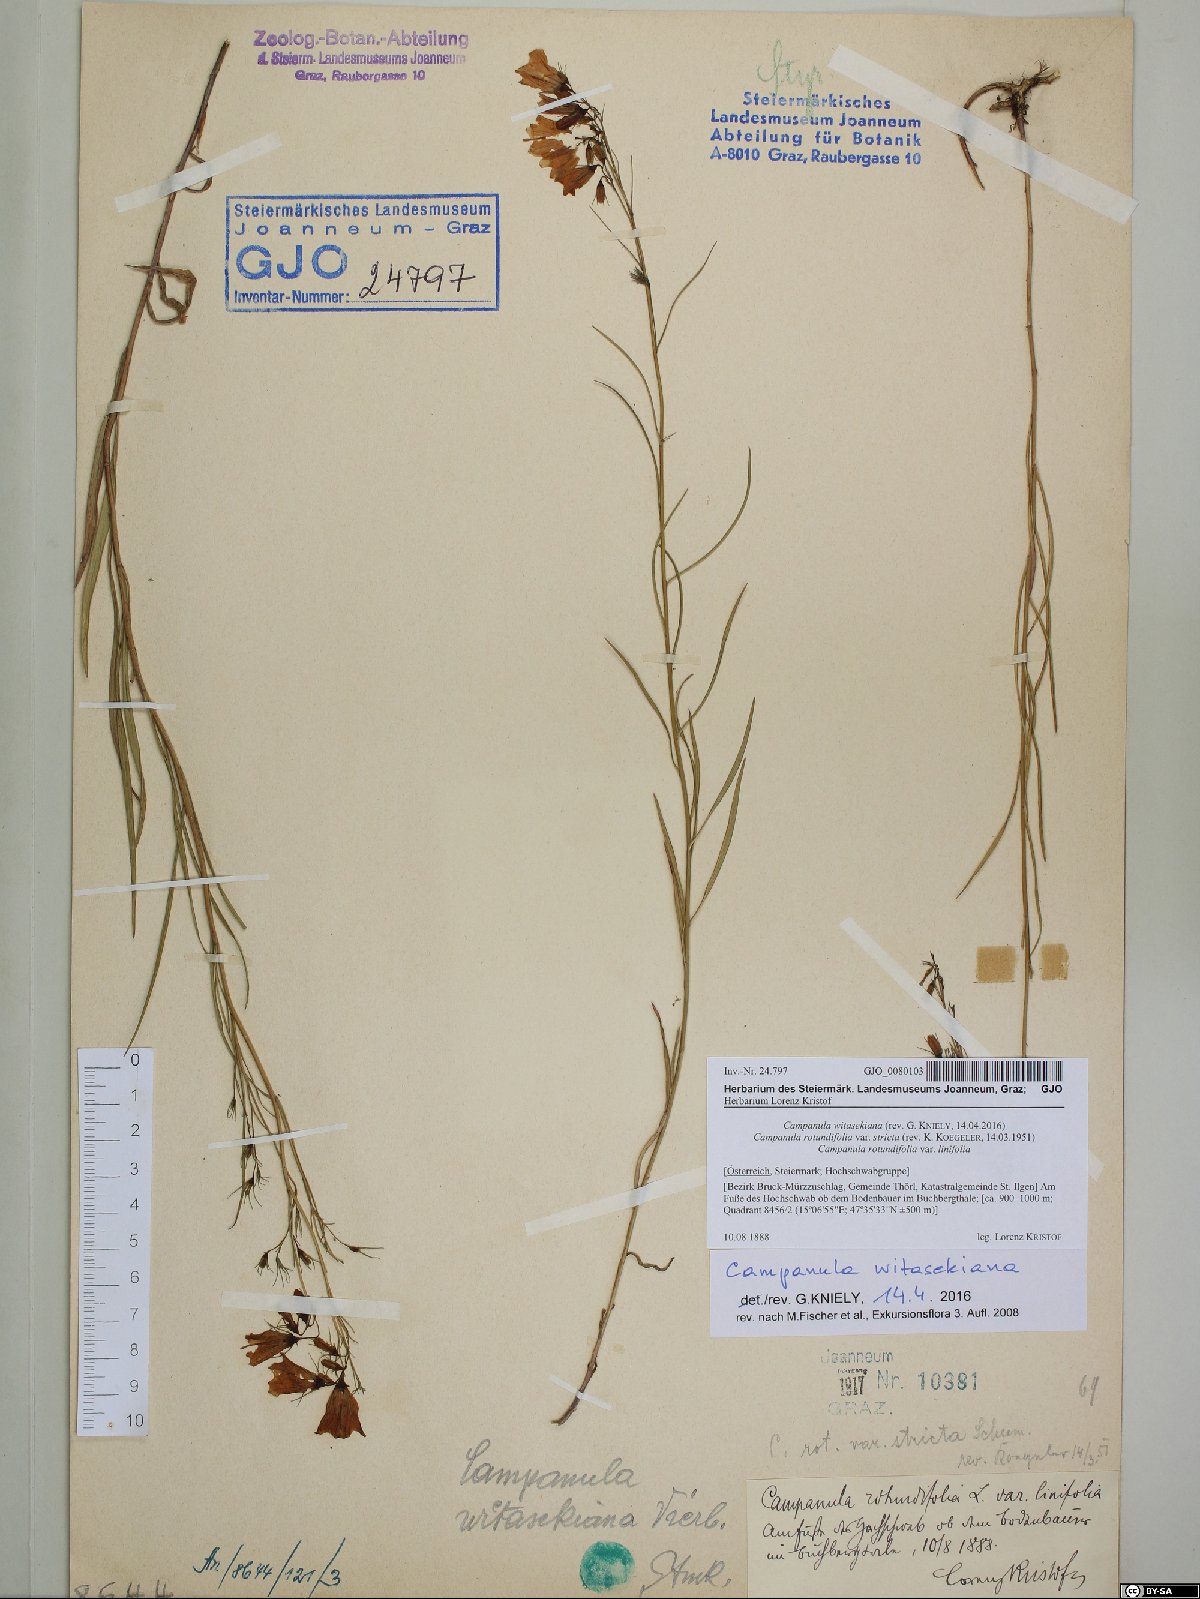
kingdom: Plantae
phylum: Tracheophyta
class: Magnoliopsida
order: Asterales
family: Campanulaceae
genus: Campanula
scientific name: Campanula witasekiana
